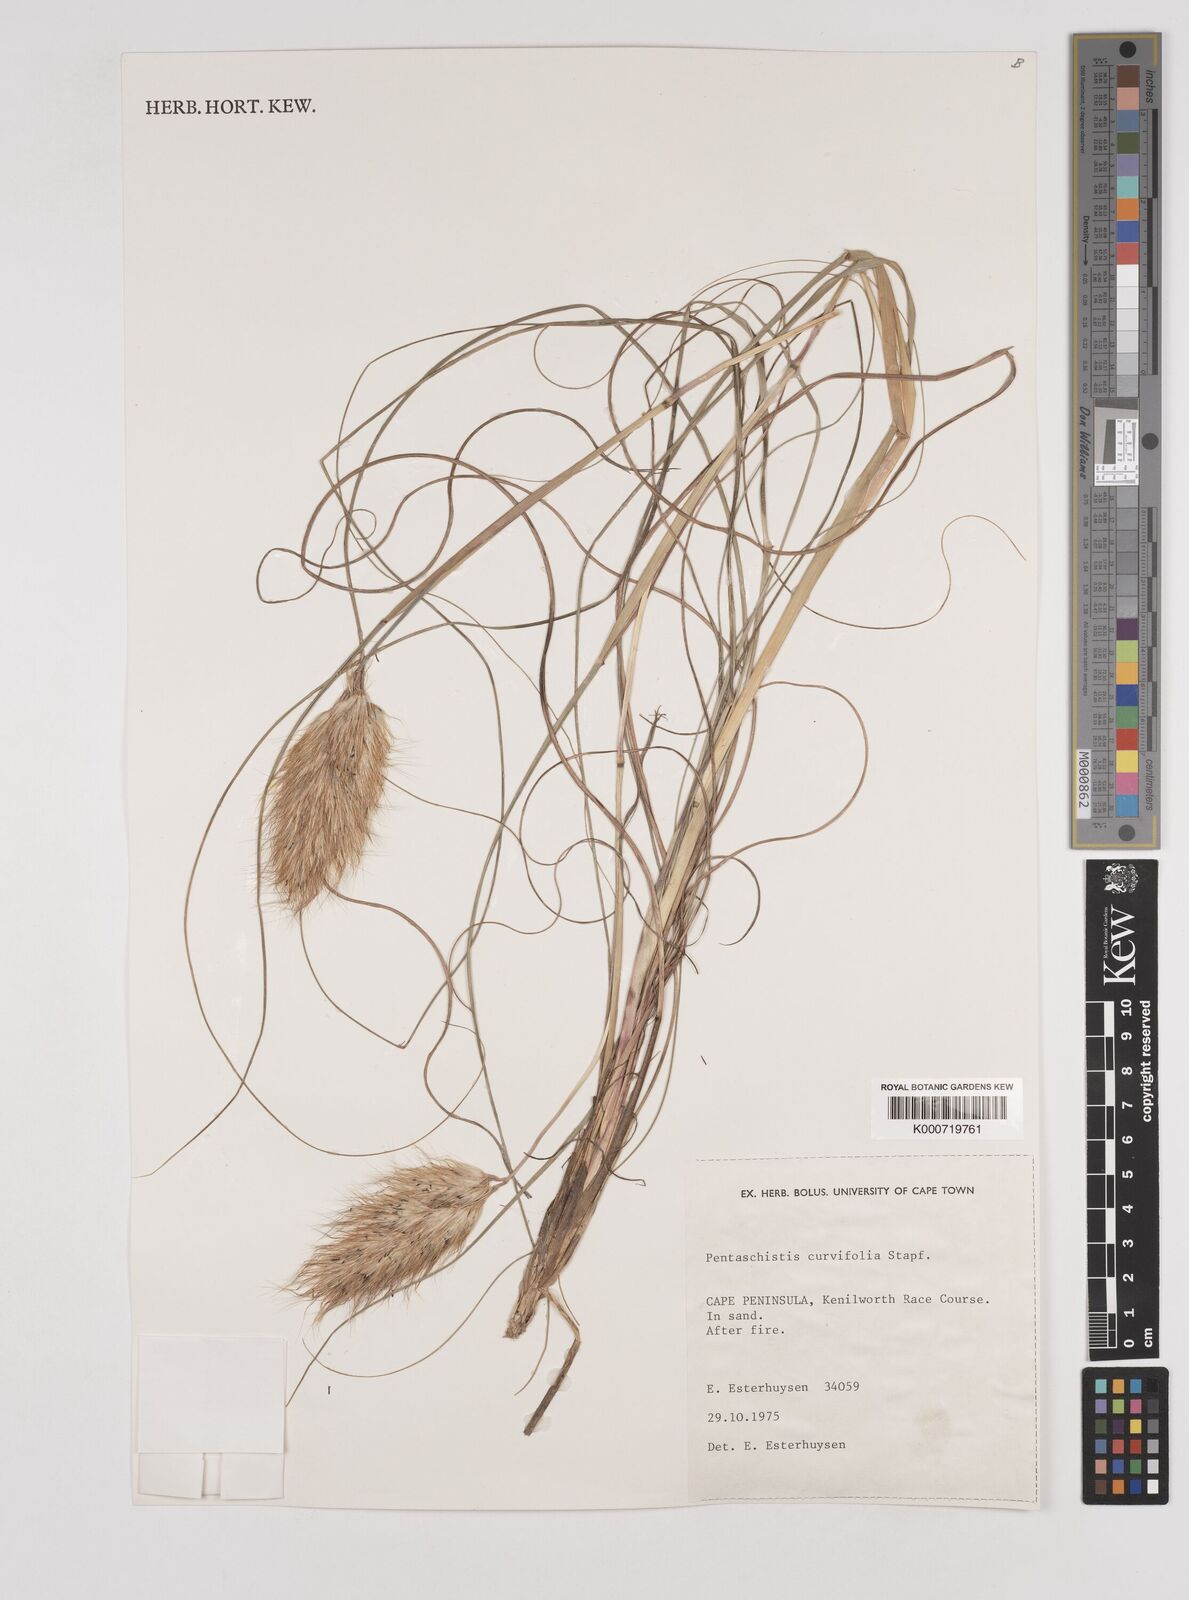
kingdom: Plantae
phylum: Tracheophyta
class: Liliopsida
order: Poales
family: Poaceae
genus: Pentameris
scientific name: Pentameris curvifolia
